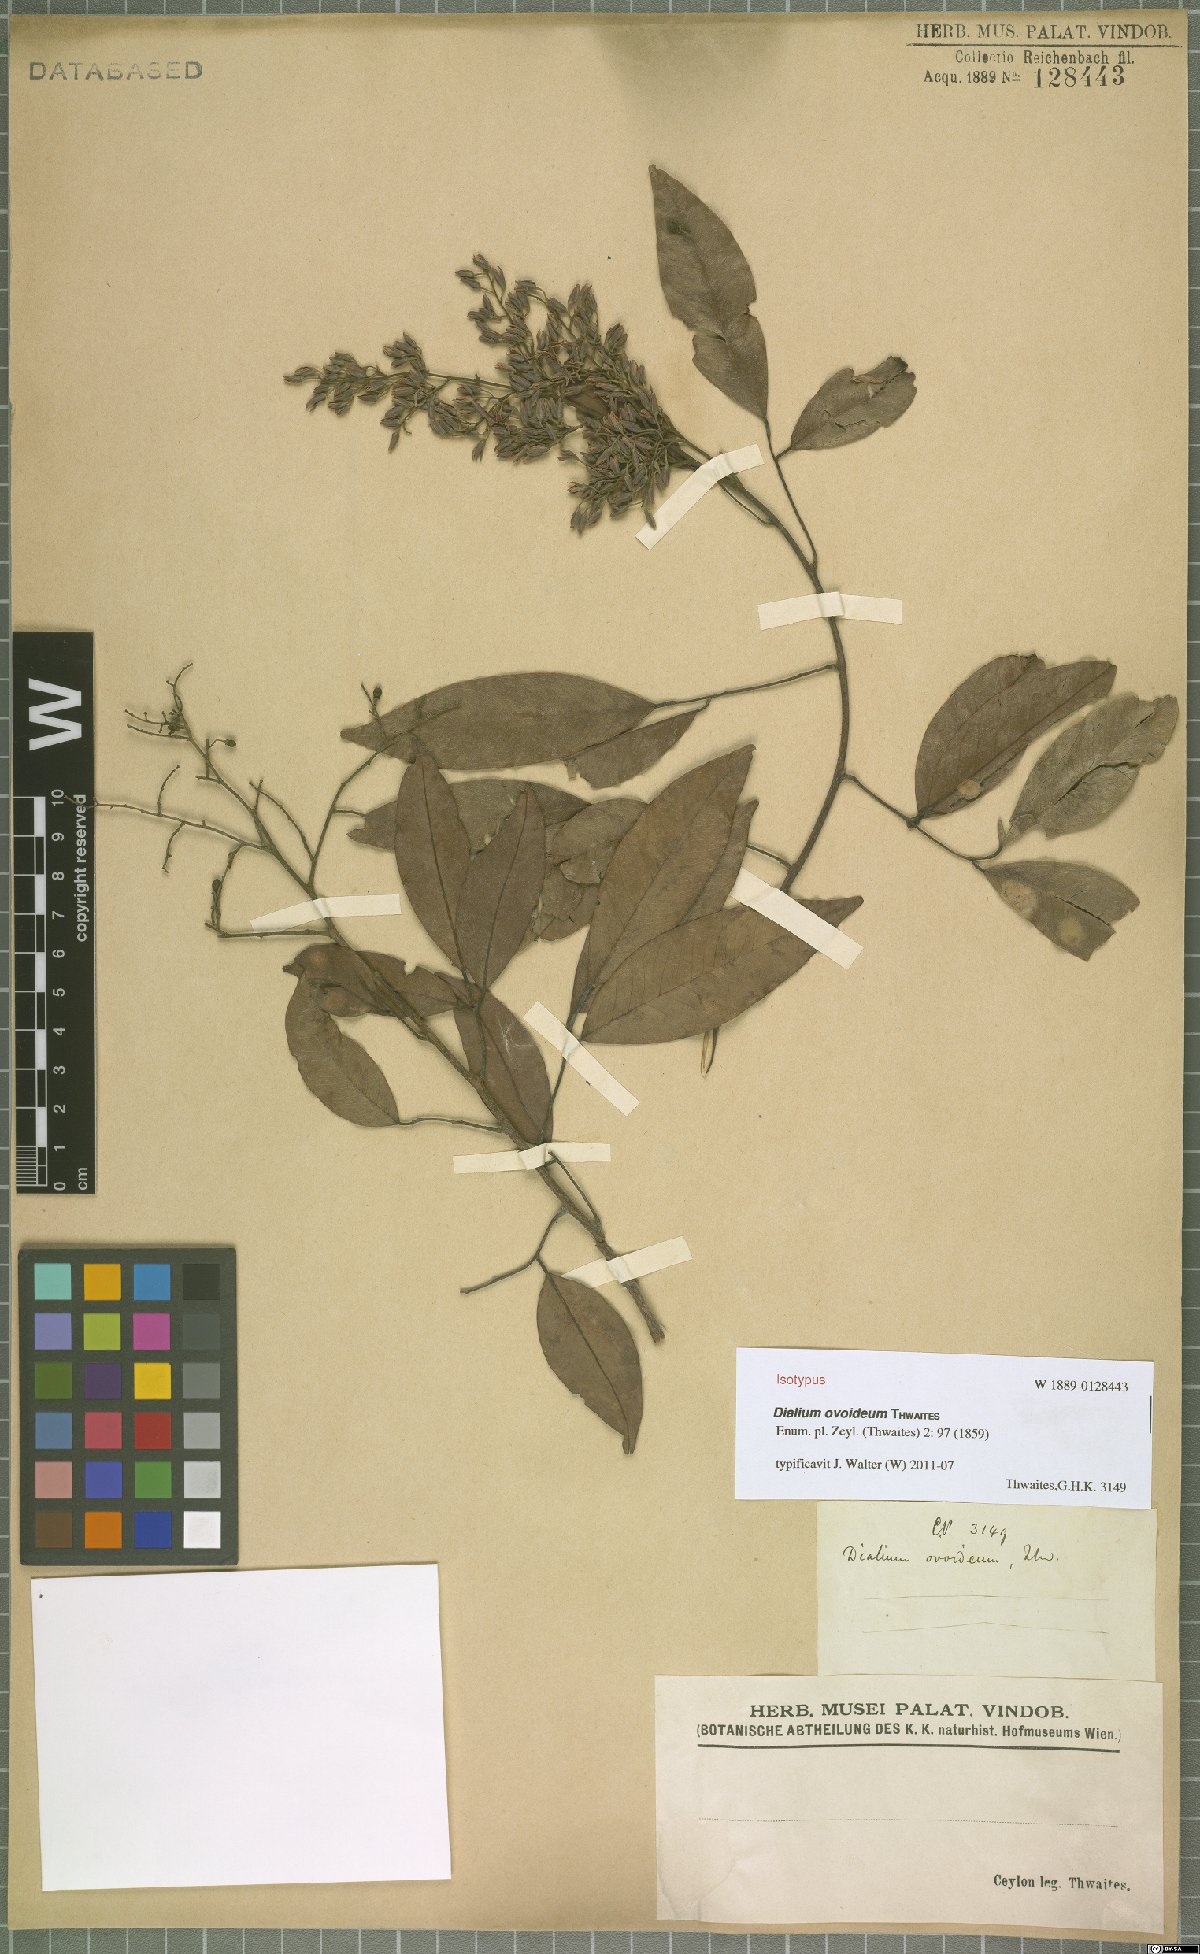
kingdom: Plantae
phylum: Tracheophyta
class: Magnoliopsida
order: Fabales
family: Fabaceae
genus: Dialium
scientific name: Dialium ovoideum
